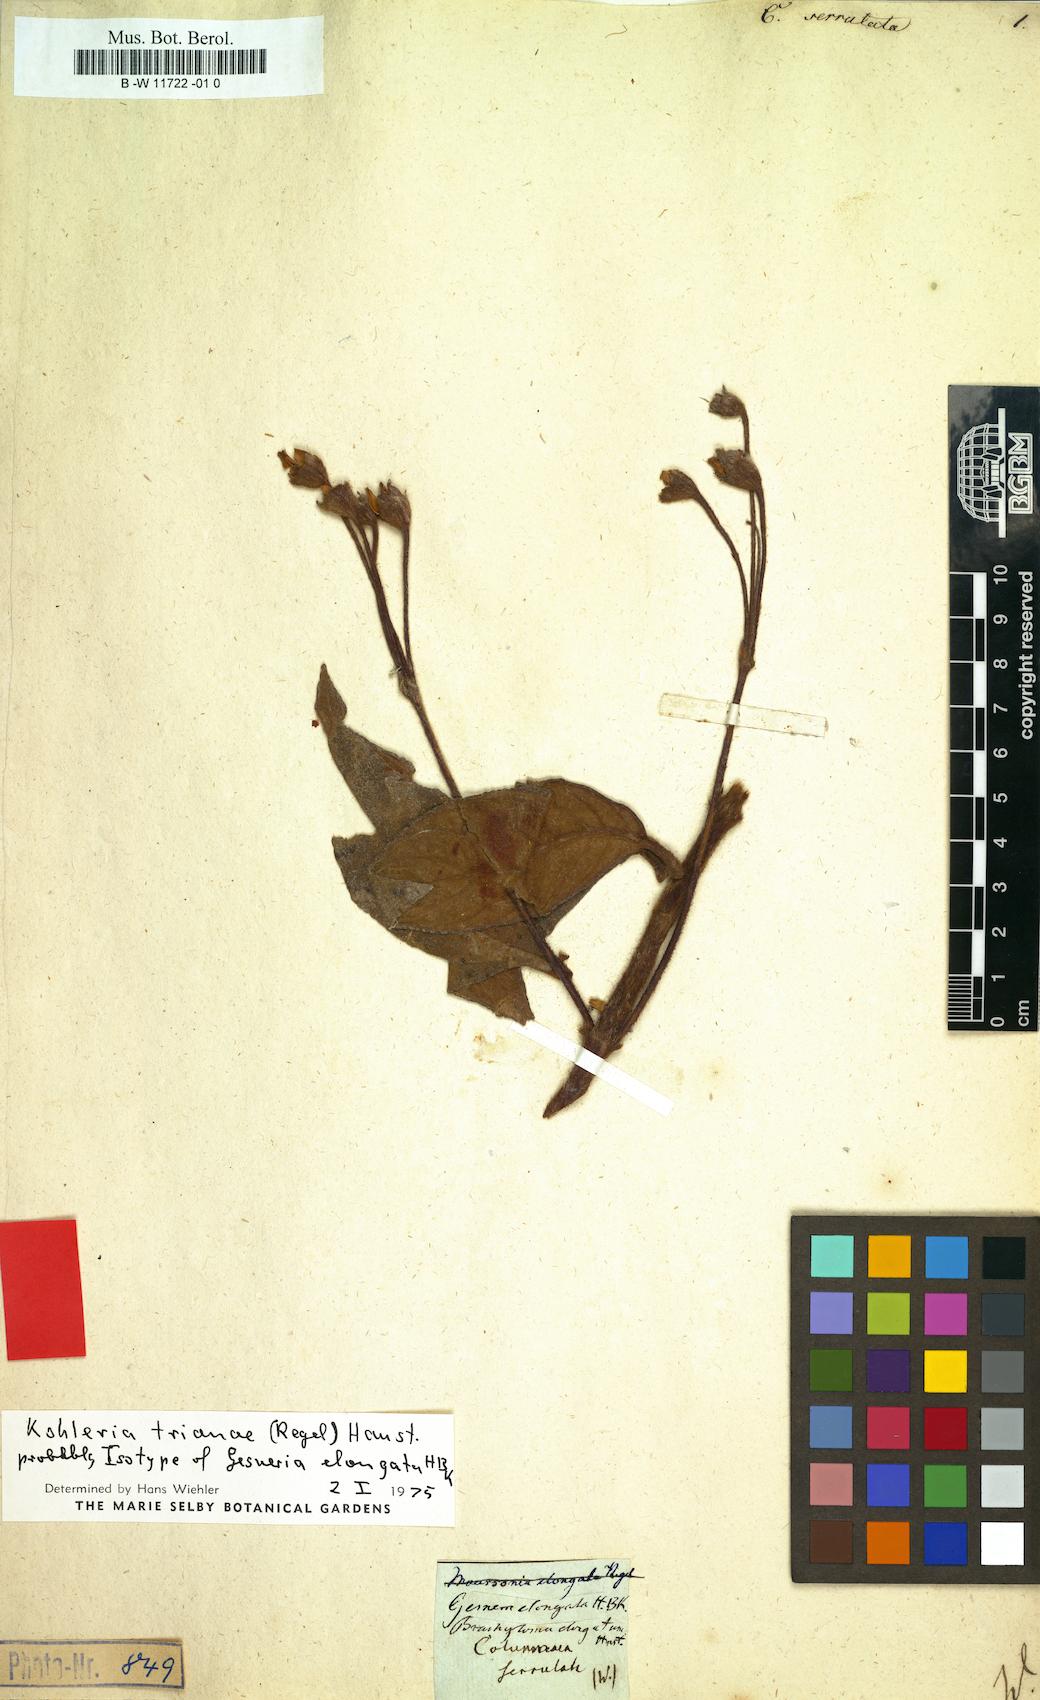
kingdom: Plantae
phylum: Tracheophyta
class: Magnoliopsida
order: Lamiales
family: Gesneriaceae
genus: Nematanthus
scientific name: Nematanthus crassifolius
